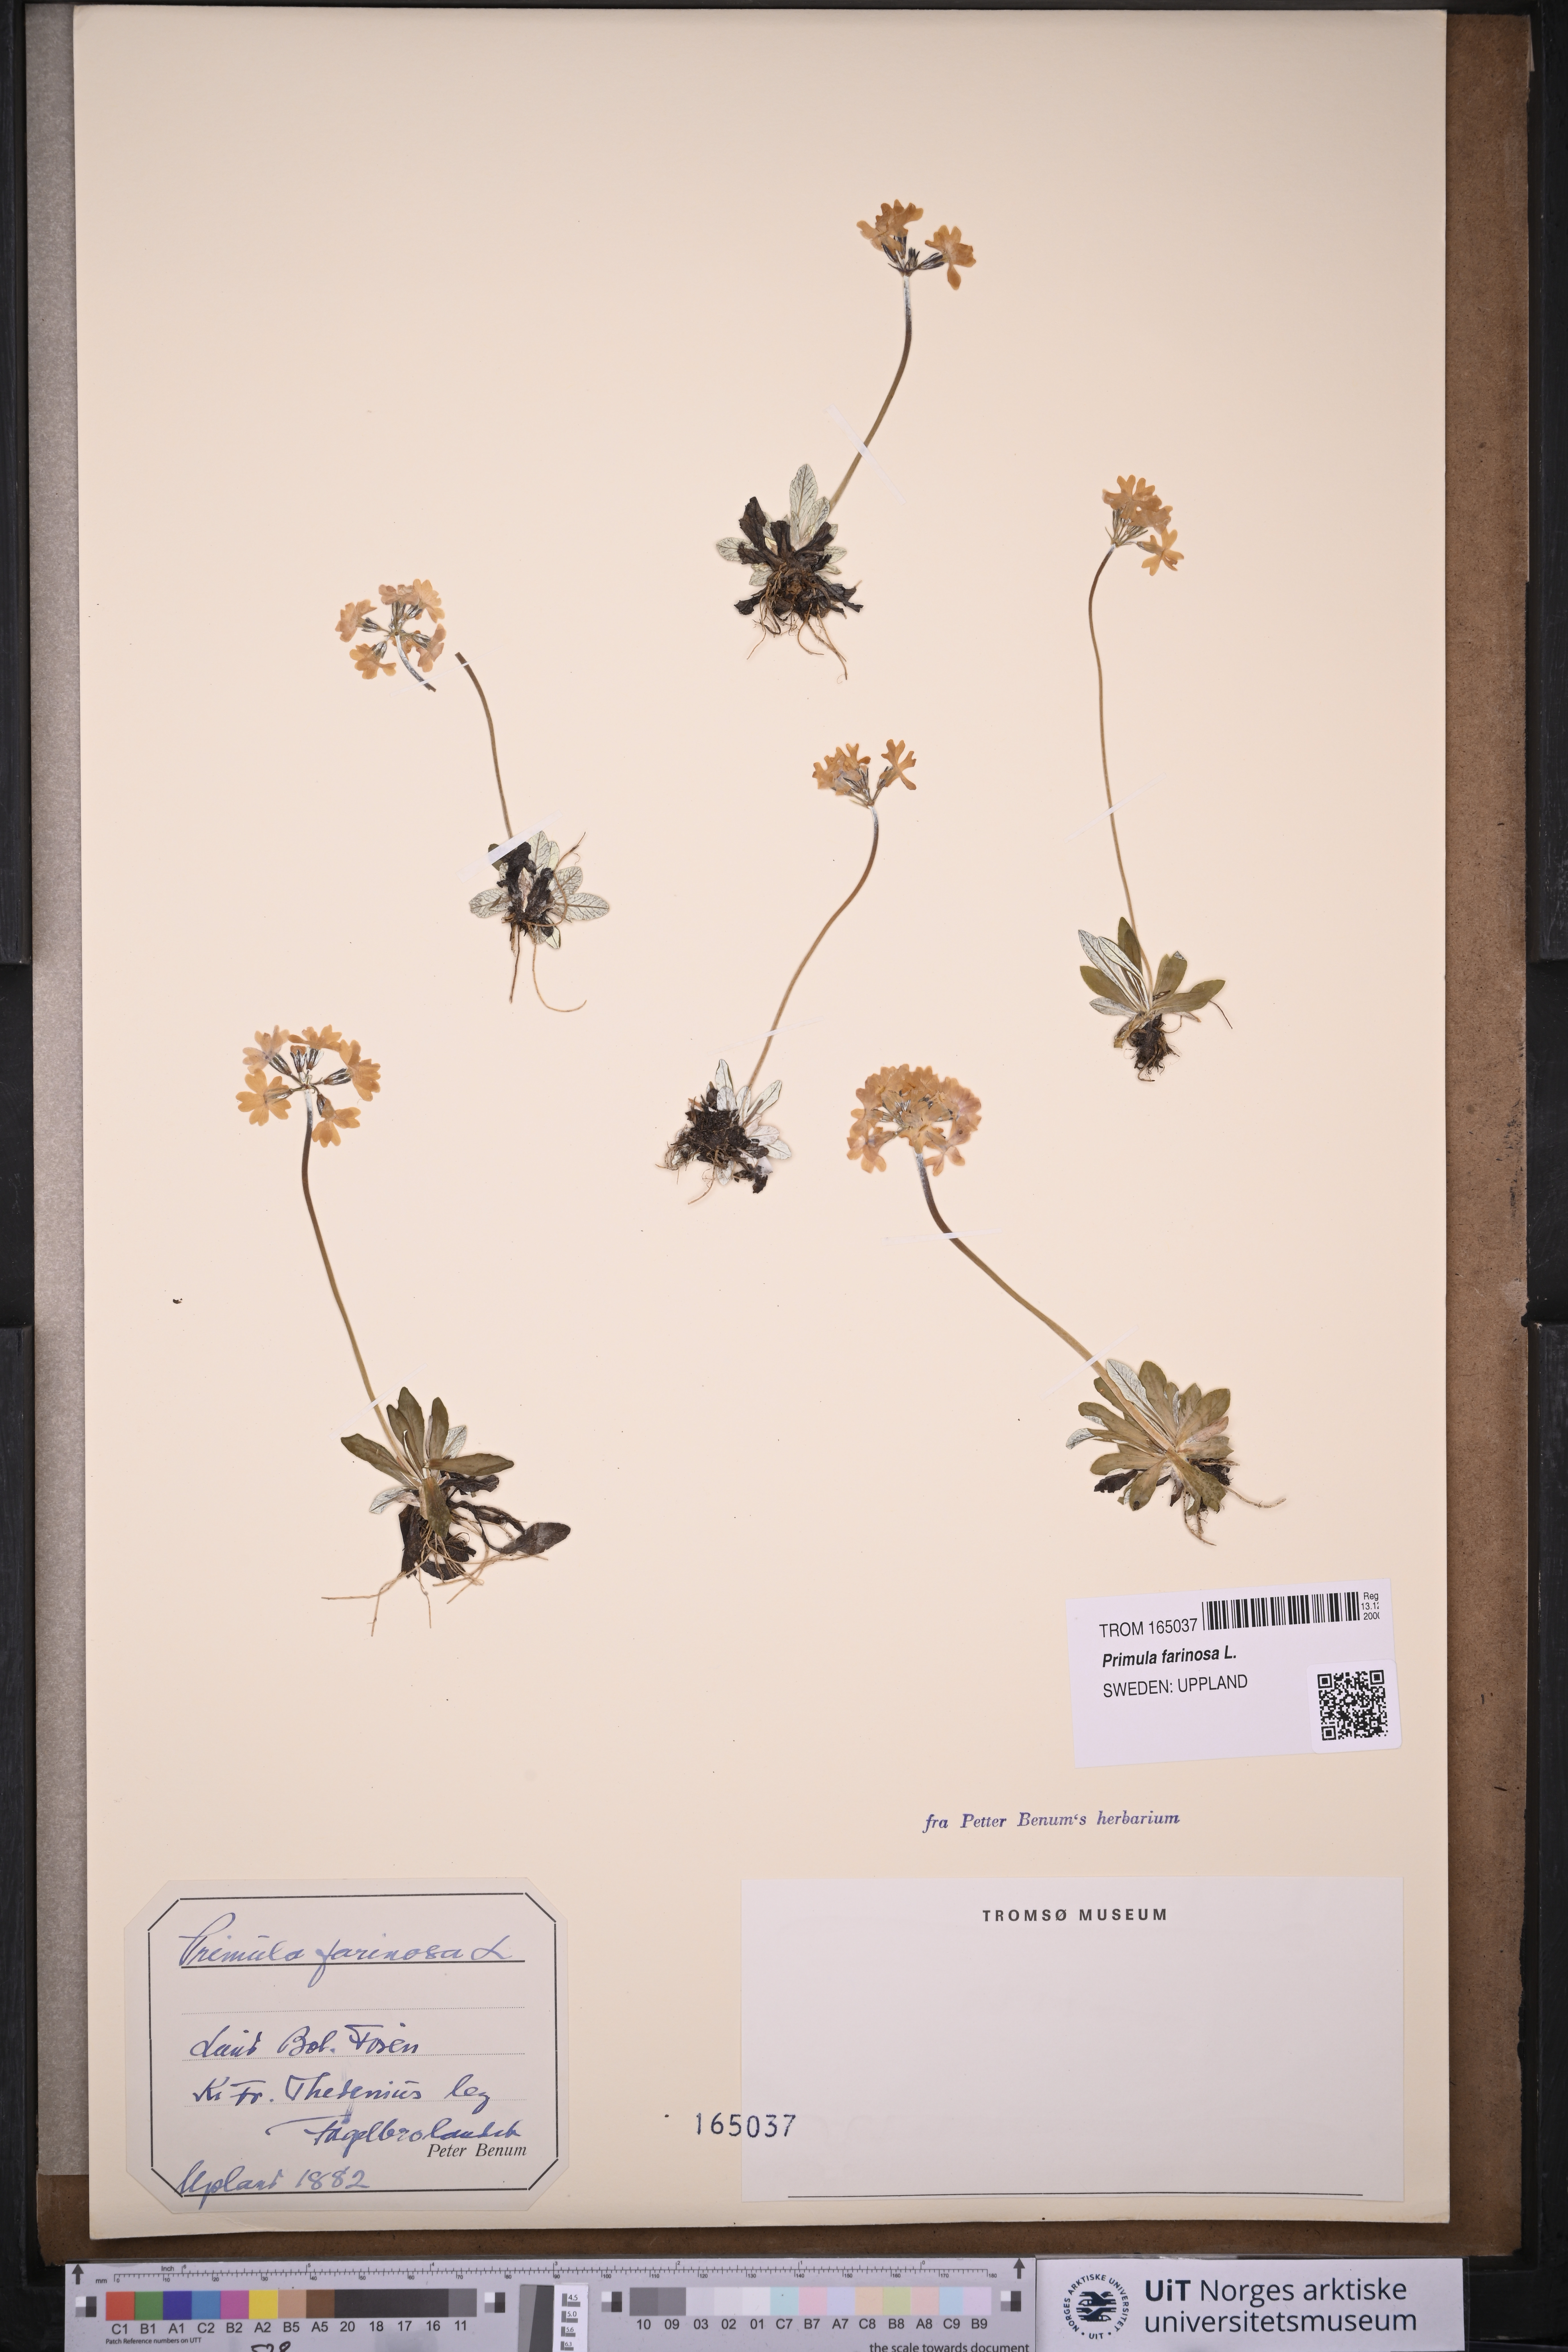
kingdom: Plantae
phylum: Tracheophyta
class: Magnoliopsida
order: Ericales
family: Primulaceae
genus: Primula
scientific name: Primula farinosa
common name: Bird's-eye primrose
